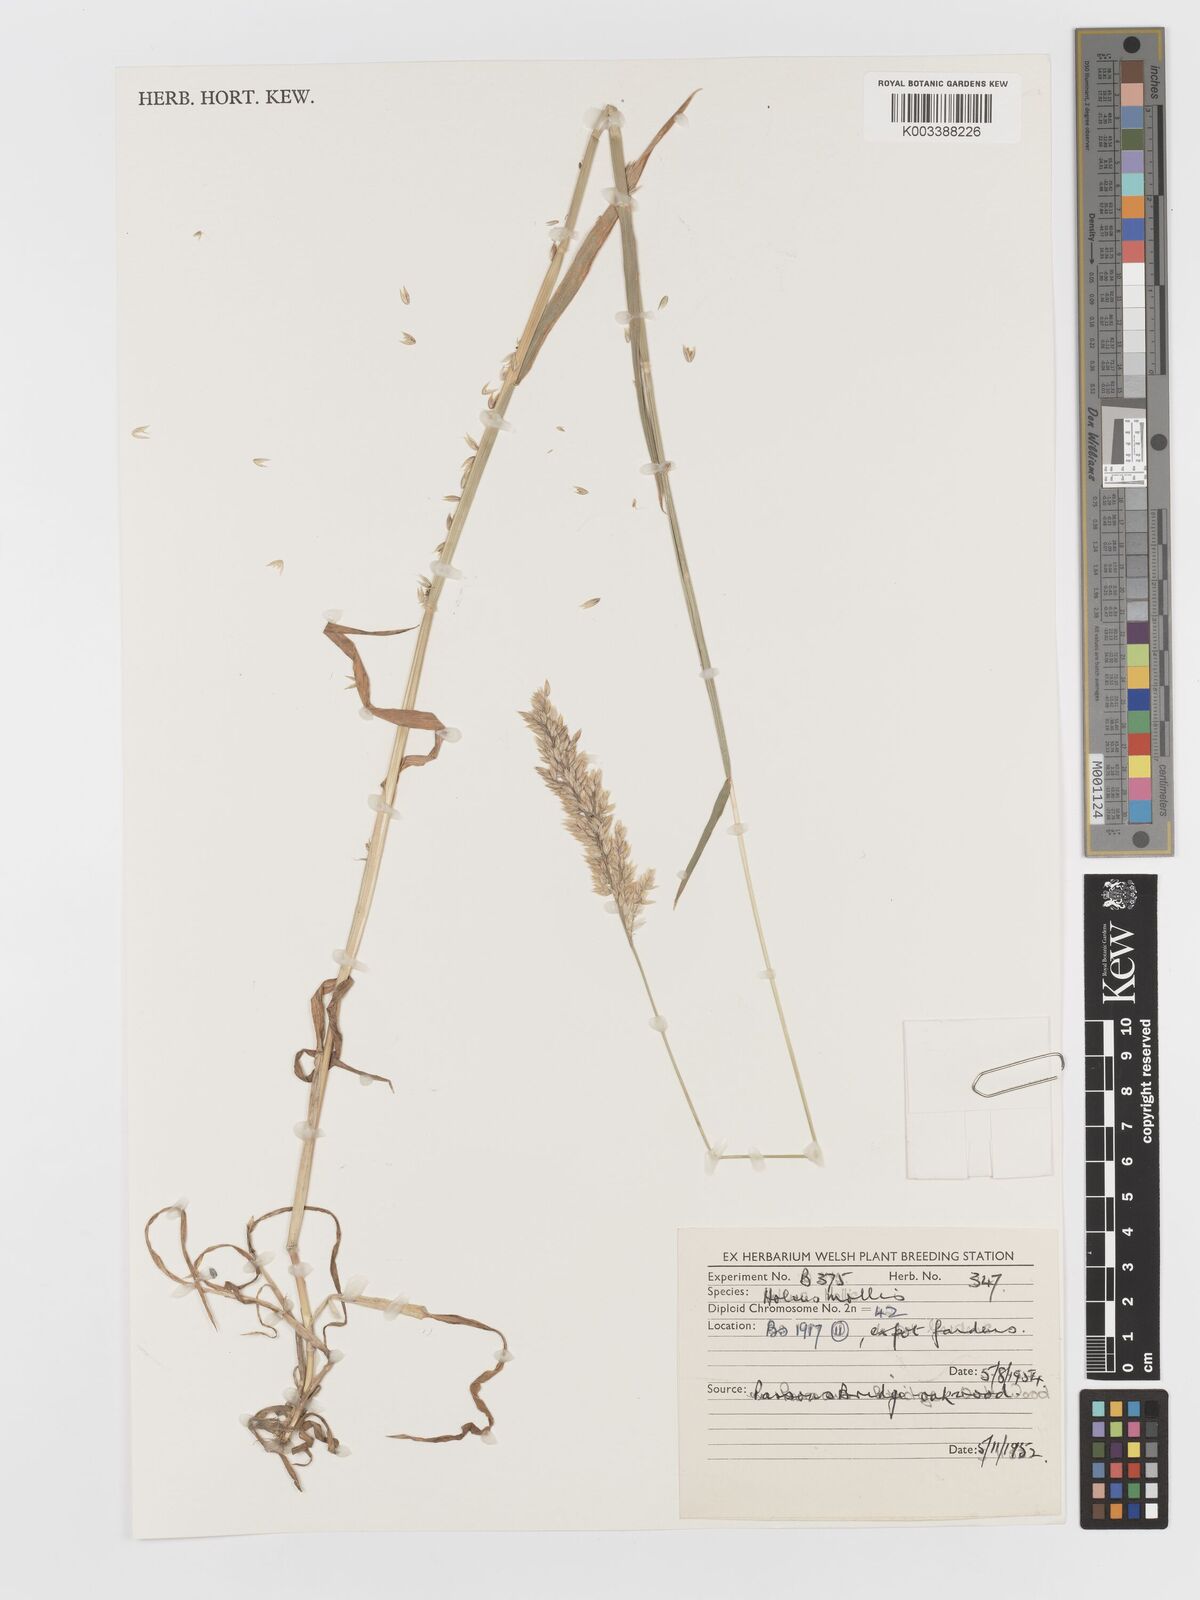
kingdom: Plantae
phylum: Tracheophyta
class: Liliopsida
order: Poales
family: Poaceae
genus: Holcus
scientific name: Holcus mollis
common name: Creeping velvetgrass
